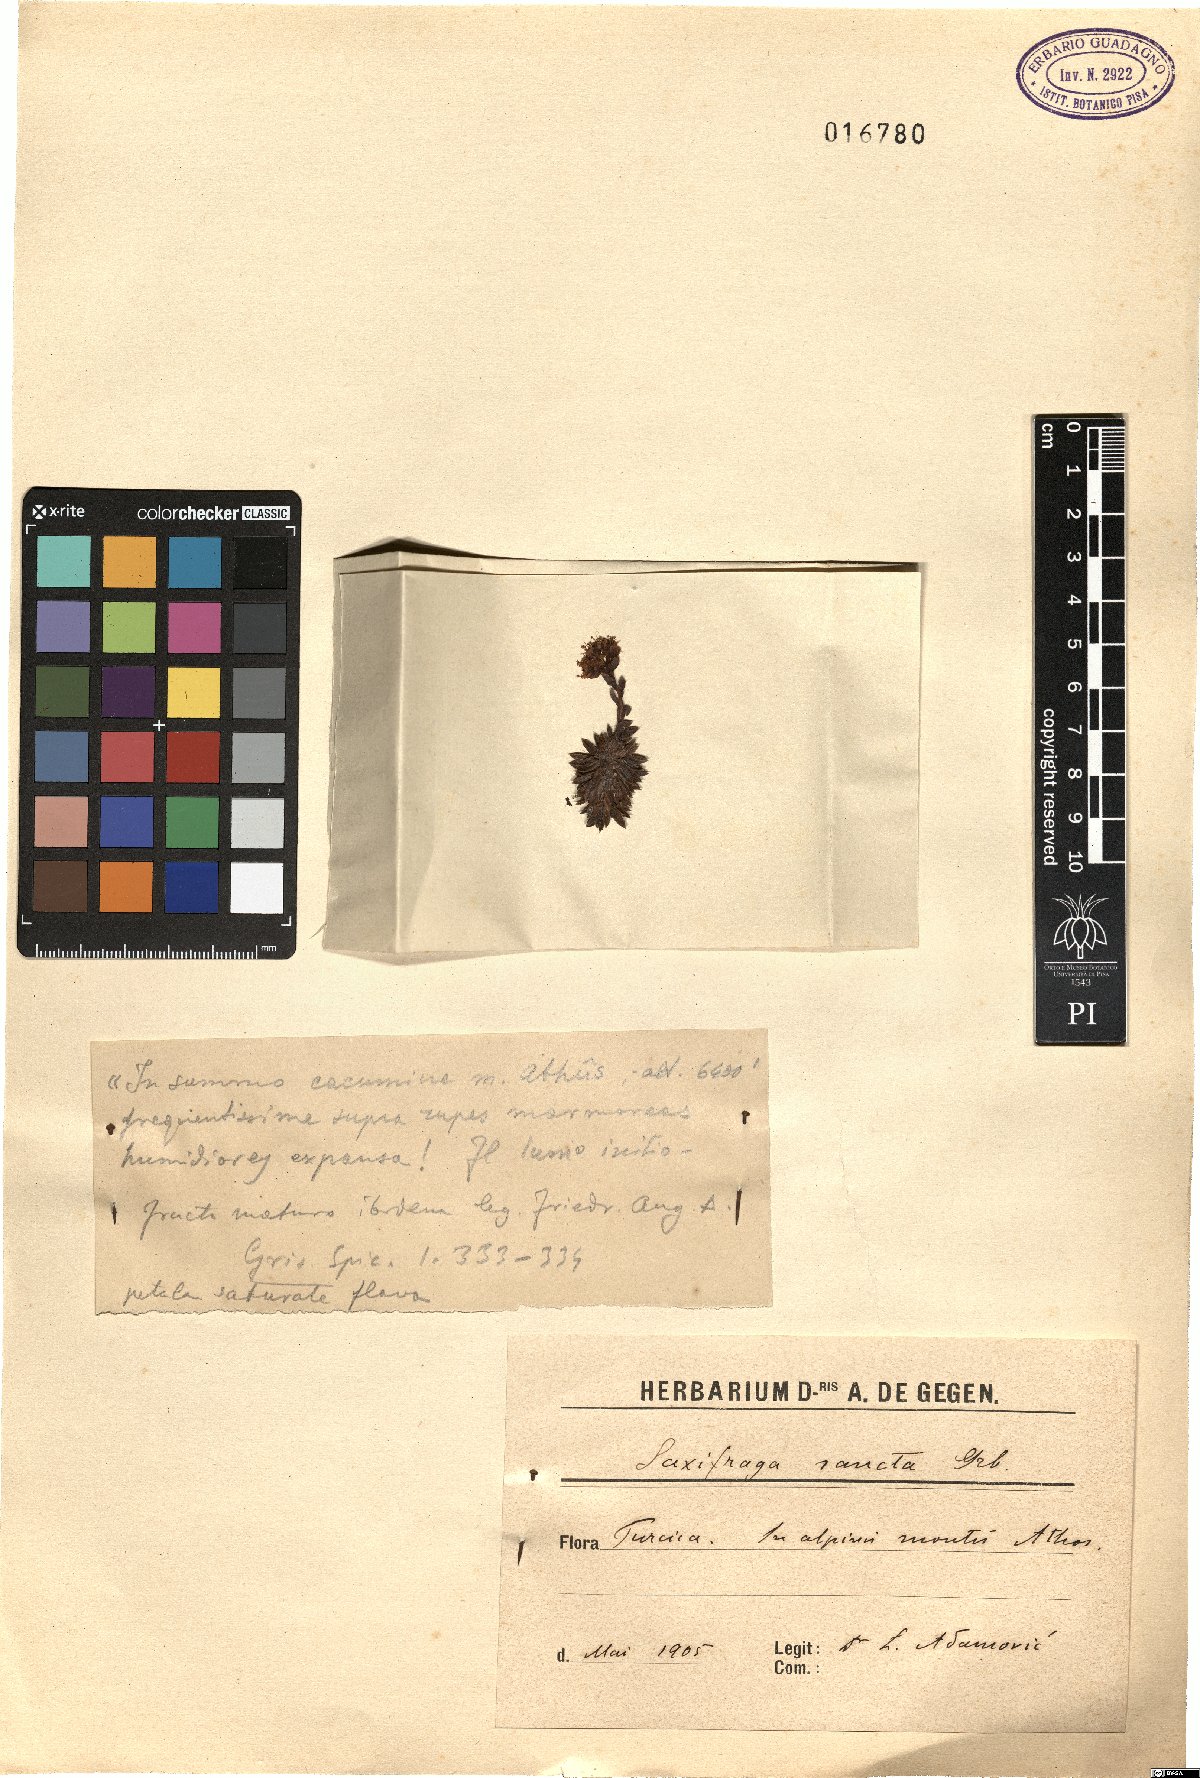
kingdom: Plantae
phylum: Tracheophyta
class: Magnoliopsida
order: Saxifragales
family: Saxifragaceae
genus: Saxifraga
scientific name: Saxifraga sancta
